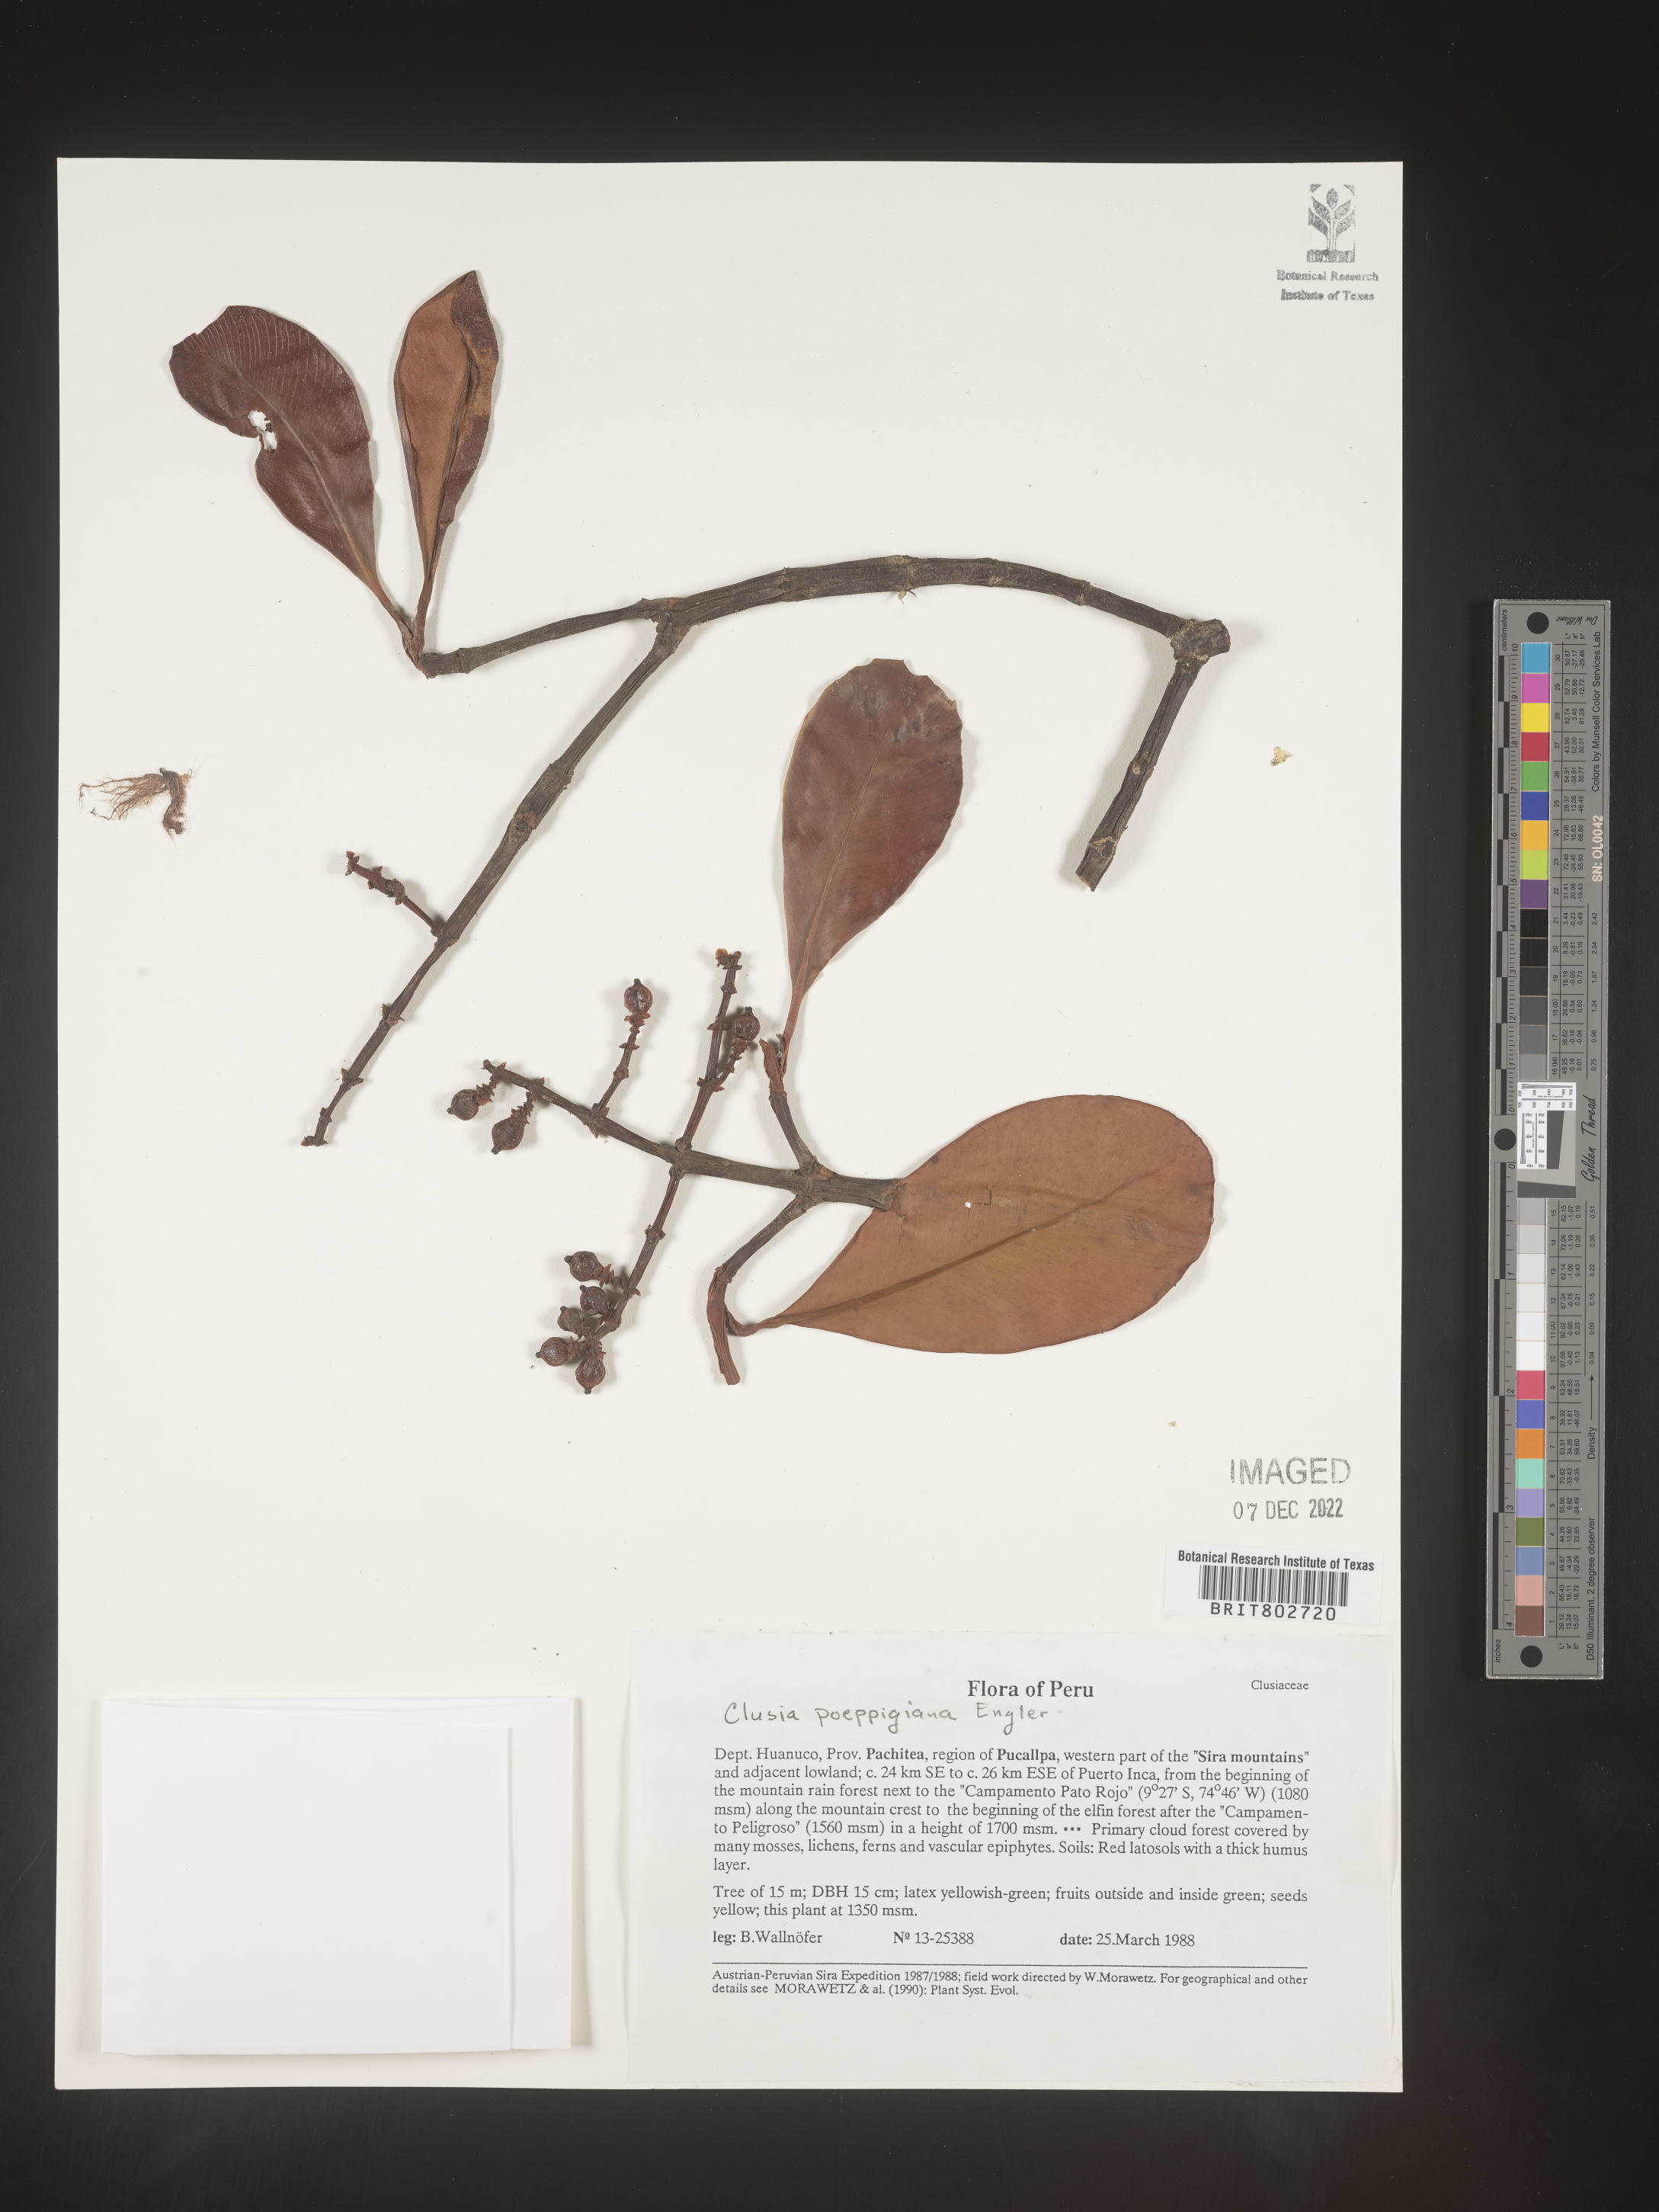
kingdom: Plantae
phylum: Tracheophyta
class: Magnoliopsida
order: Malpighiales
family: Clusiaceae
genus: Clusia
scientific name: Clusia
